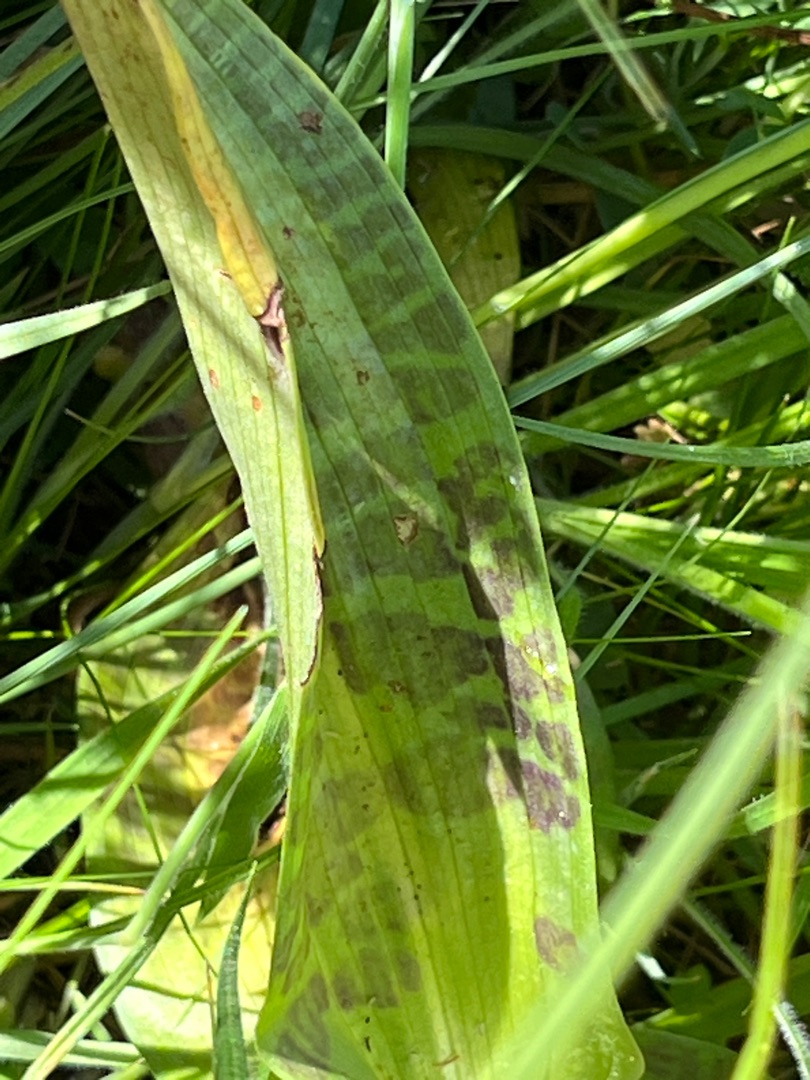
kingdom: Plantae
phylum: Tracheophyta
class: Liliopsida
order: Asparagales
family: Orchidaceae
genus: Dactylorhiza
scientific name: Dactylorhiza majalis
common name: Maj-gøgeurt
